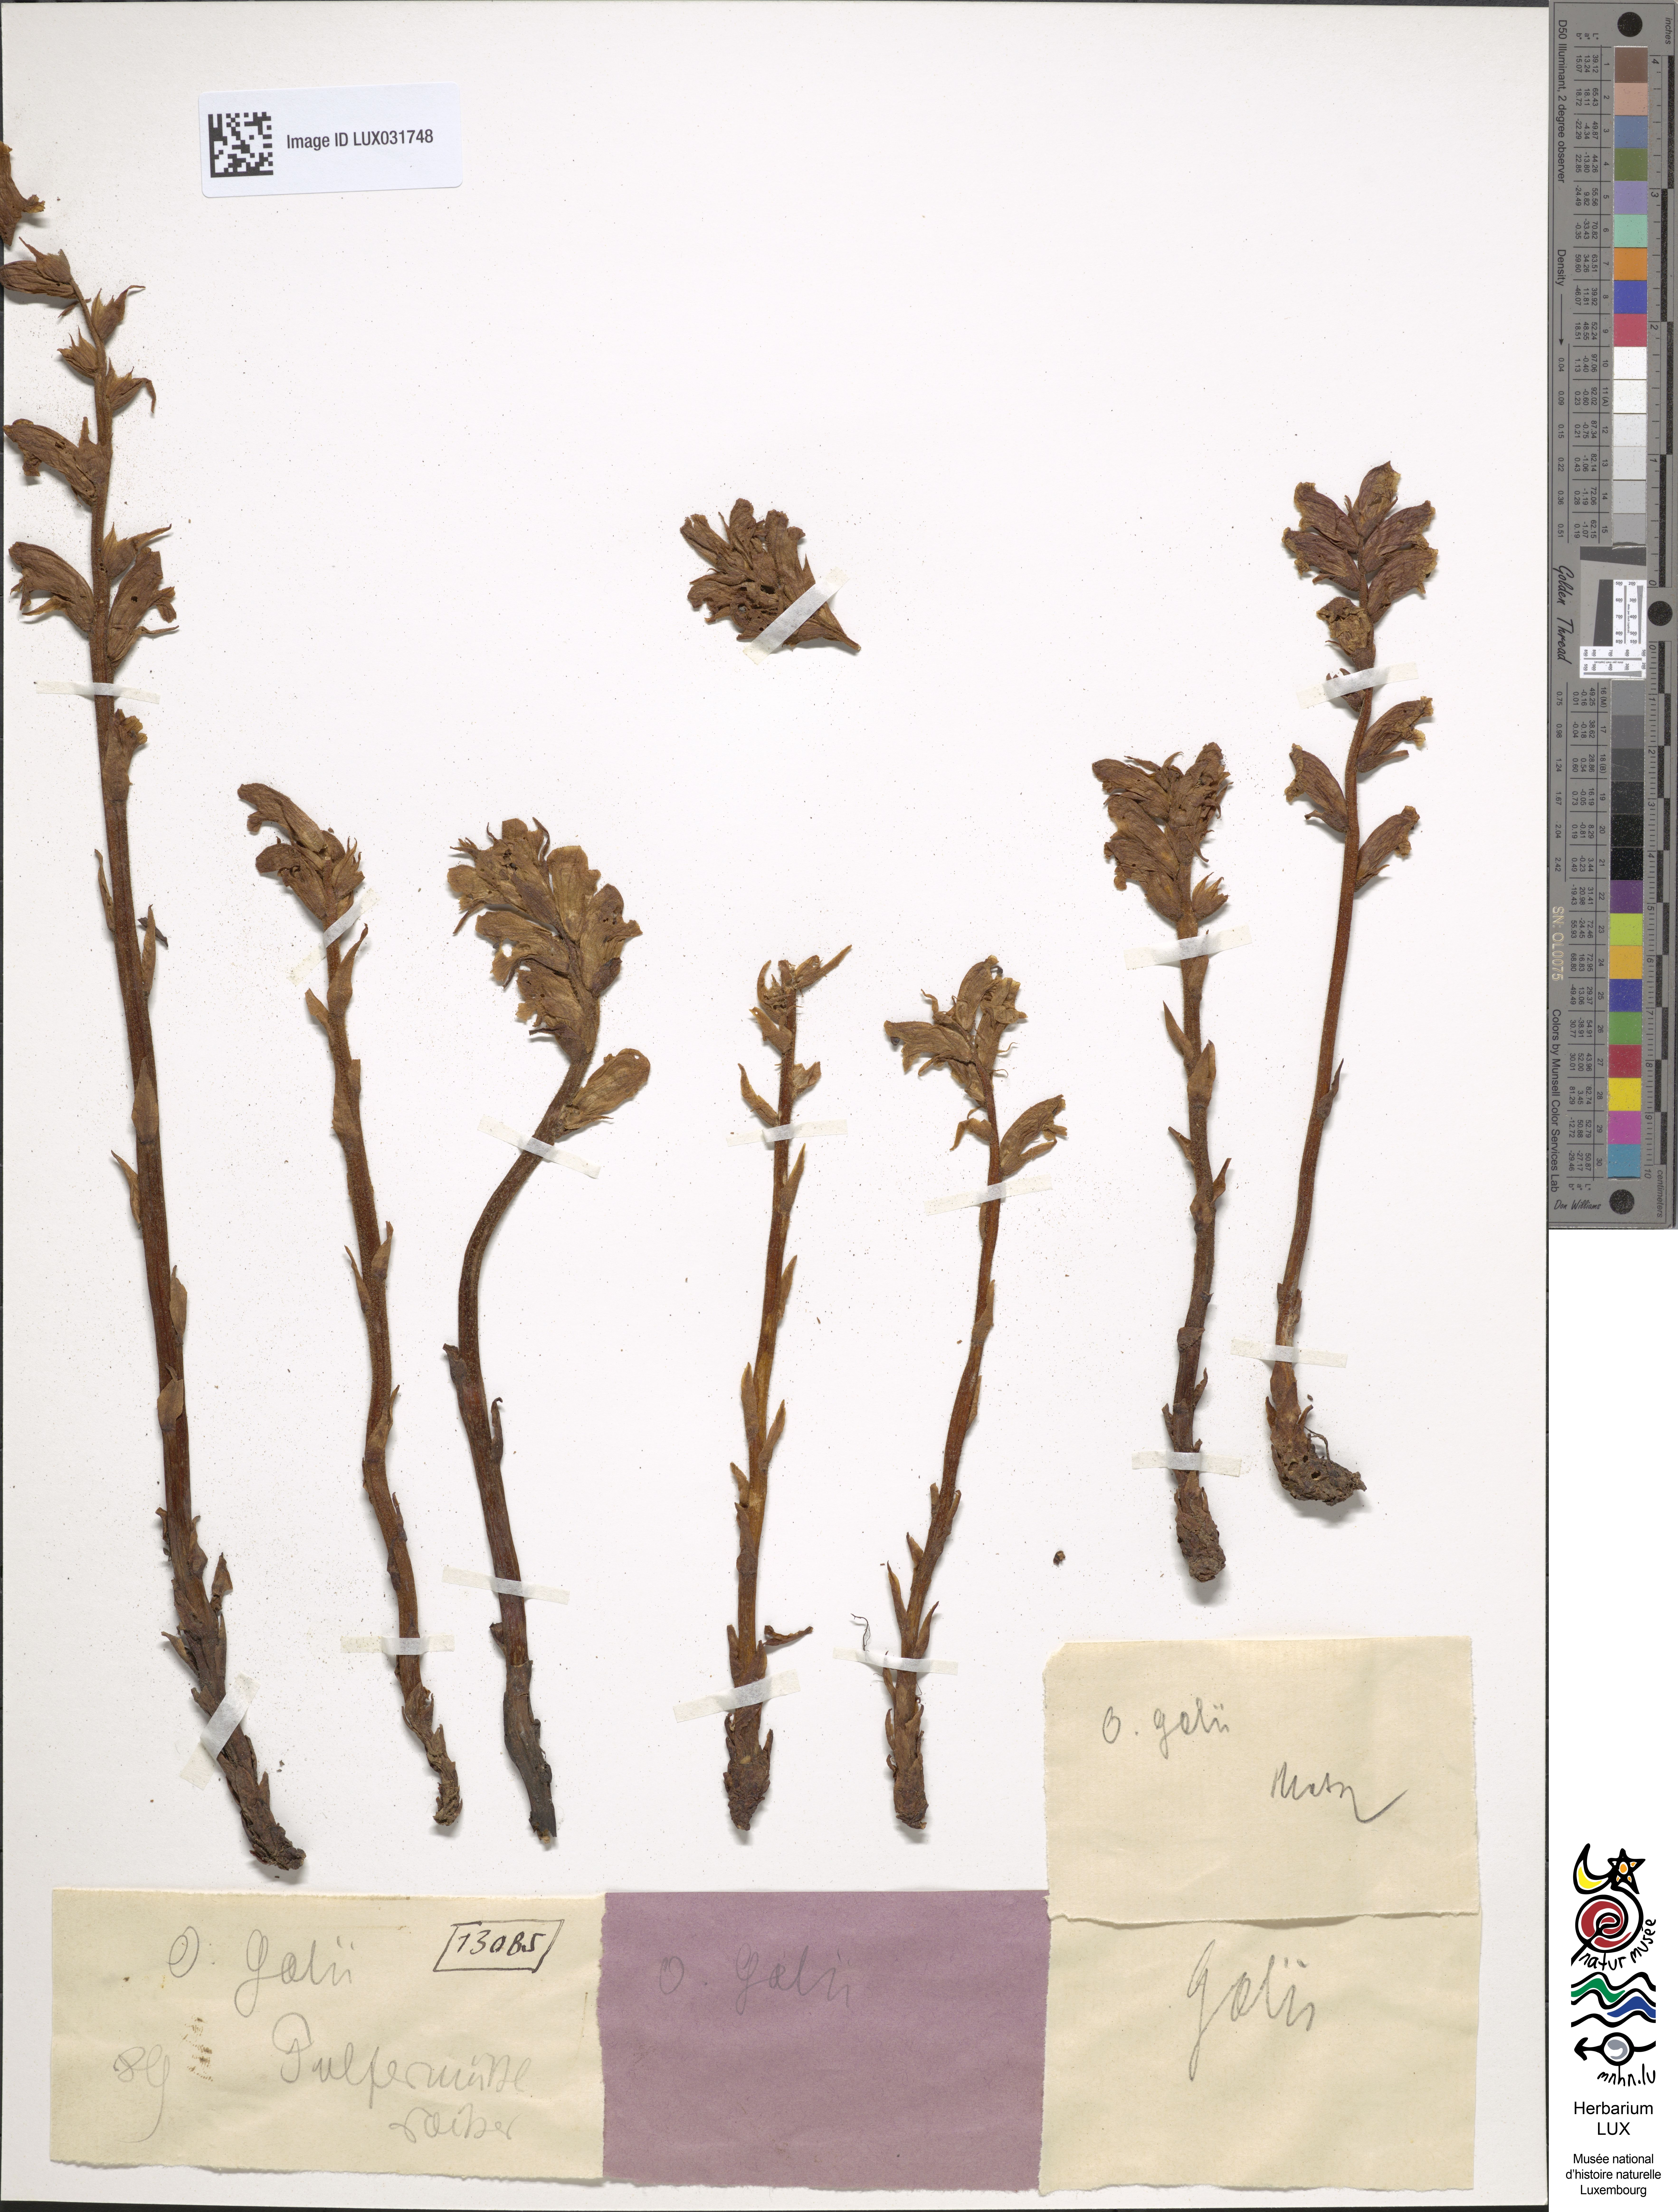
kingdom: Plantae
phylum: Tracheophyta
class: Magnoliopsida
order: Lamiales
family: Orobanchaceae
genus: Orobanche
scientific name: Orobanche caryophyllacea
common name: Bedstraw broomrape
